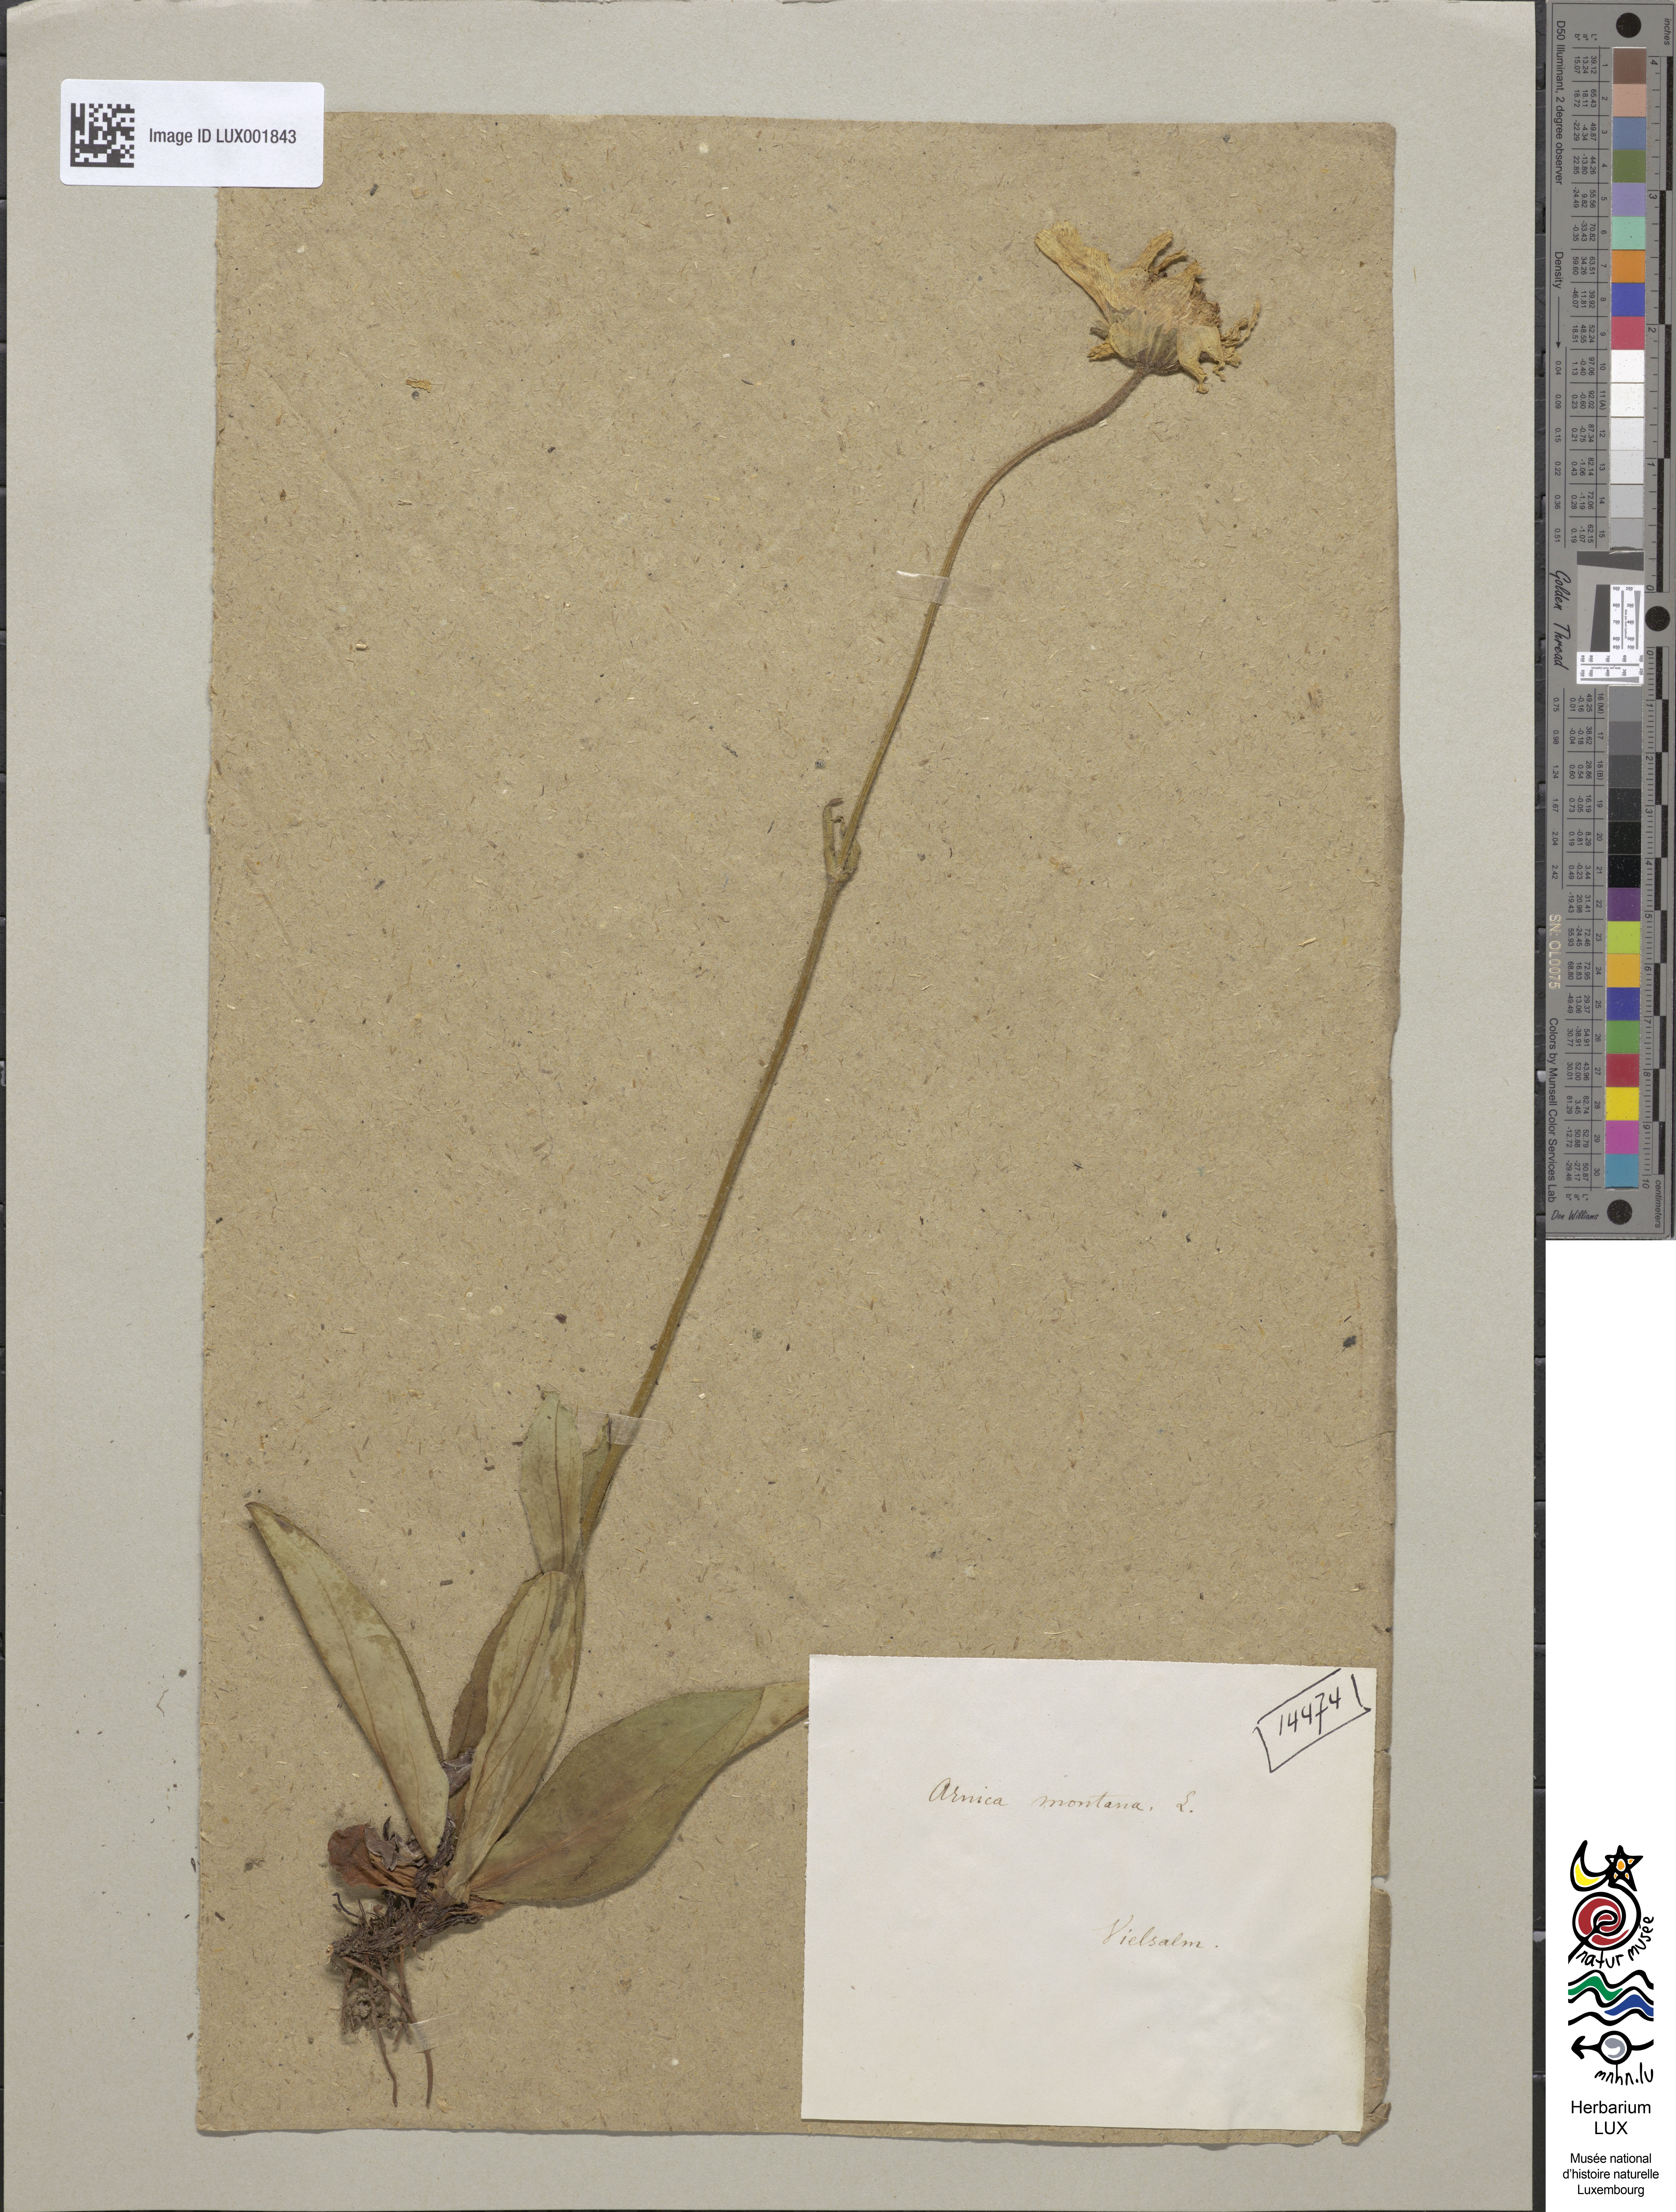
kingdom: Plantae
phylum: Tracheophyta
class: Magnoliopsida
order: Asterales
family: Asteraceae
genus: Arnica
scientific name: Arnica montana
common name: Leopard's bane
